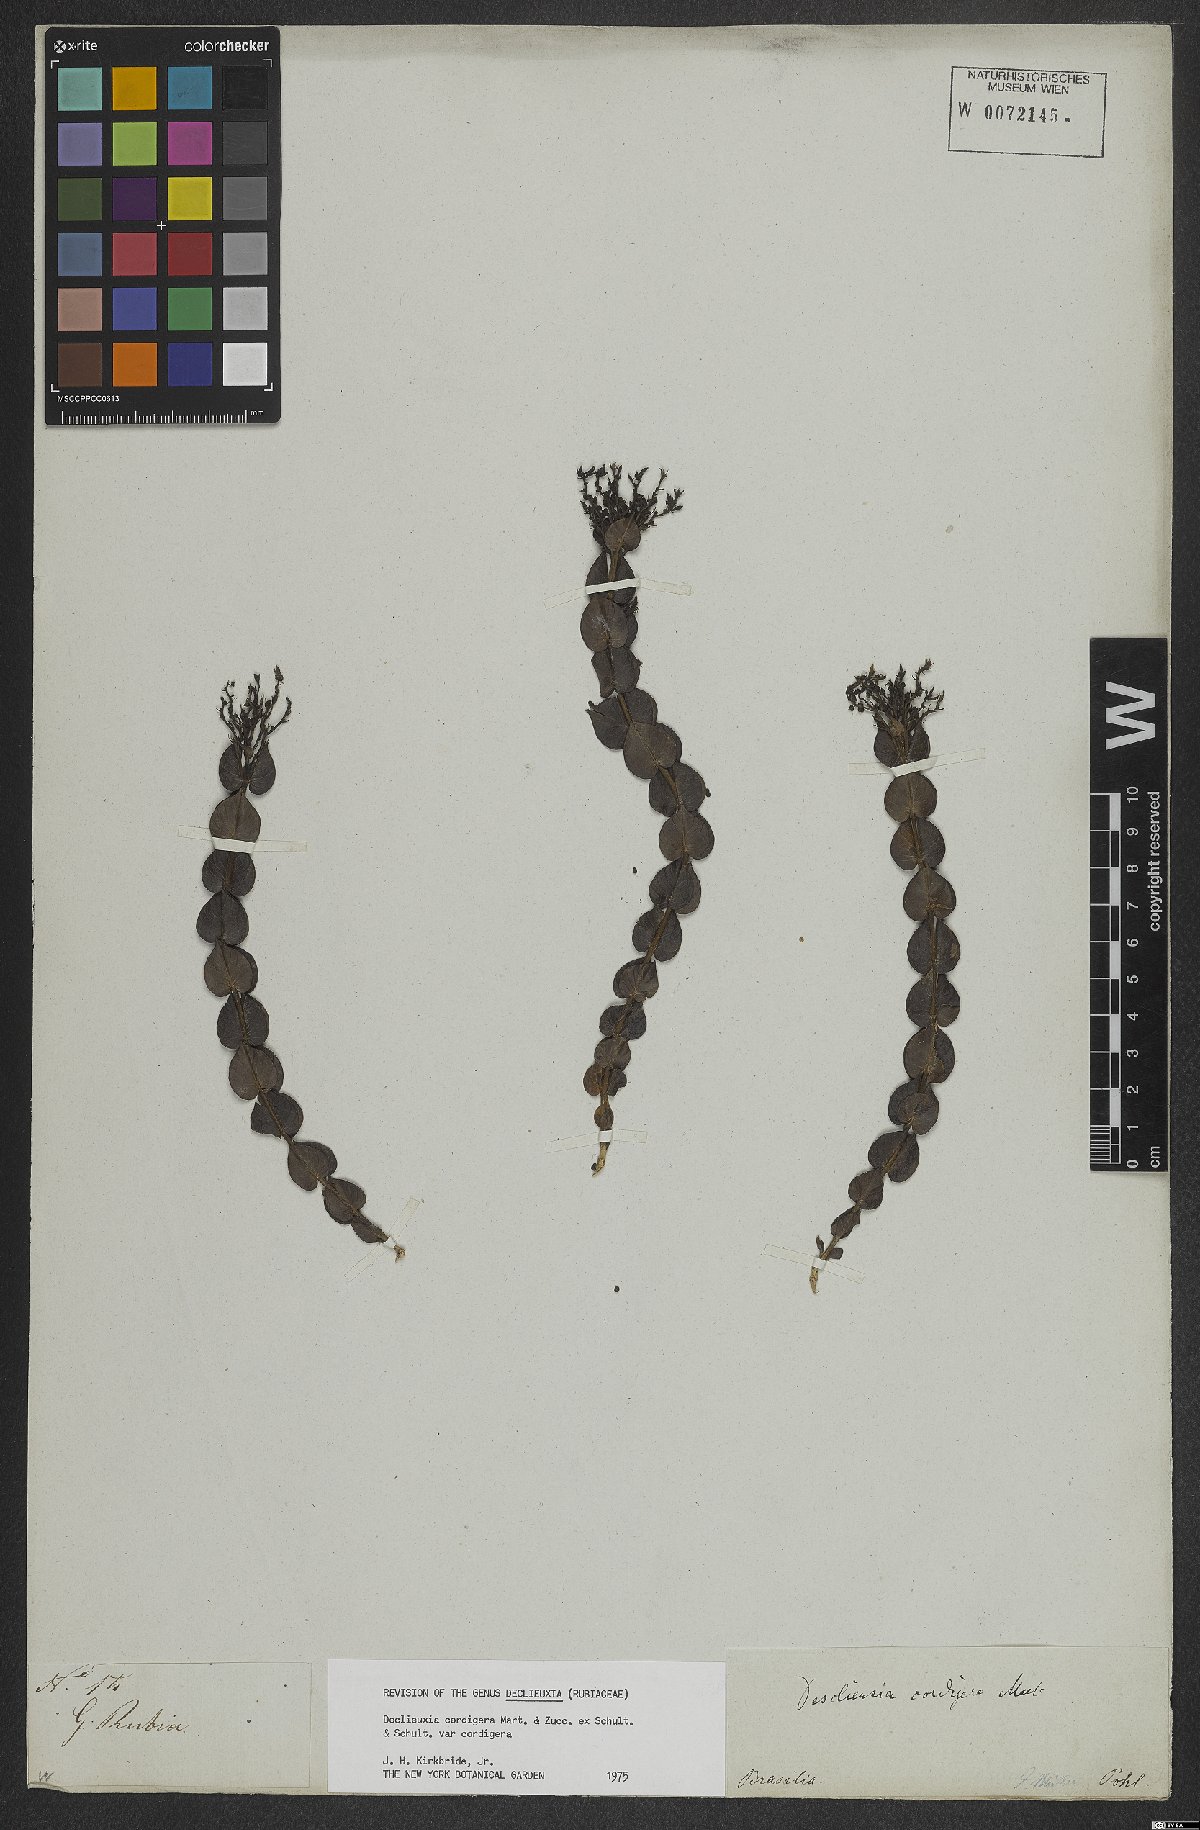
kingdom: Plantae
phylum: Tracheophyta
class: Magnoliopsida
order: Gentianales
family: Rubiaceae
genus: Declieuxia
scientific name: Declieuxia cordigera
